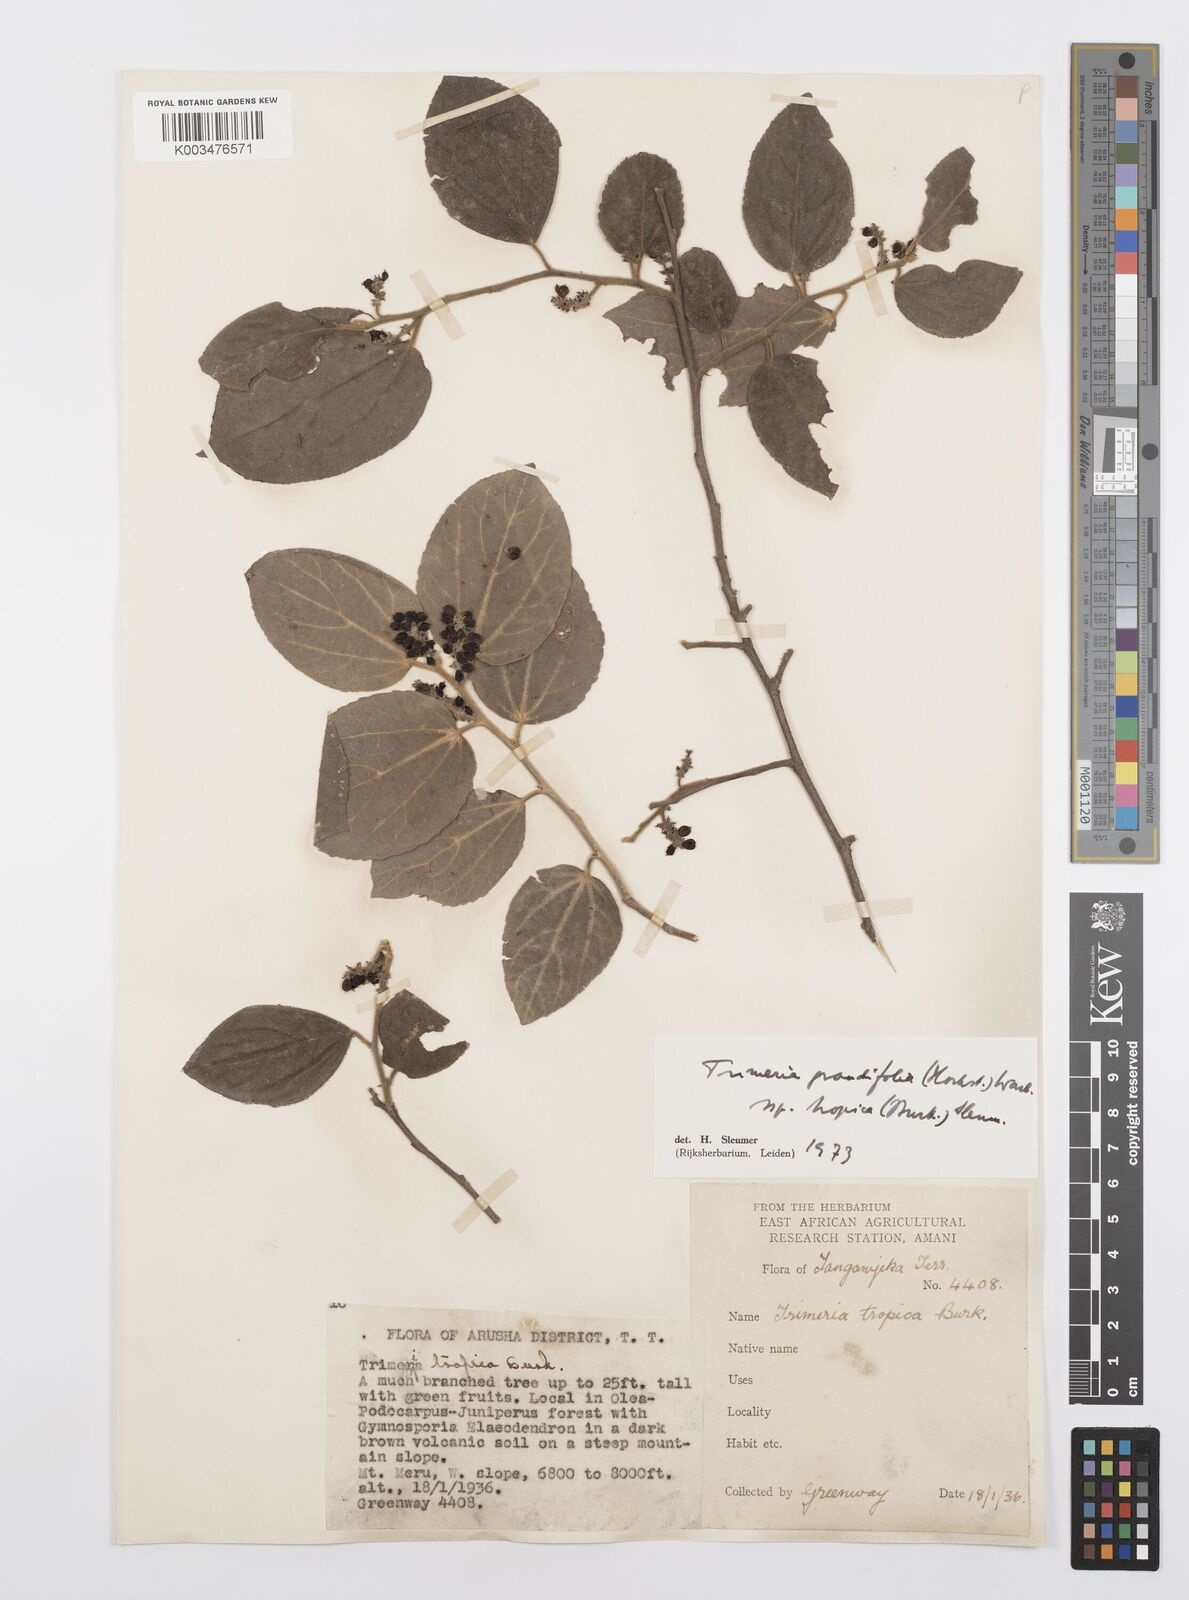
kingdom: Plantae
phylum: Tracheophyta
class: Magnoliopsida
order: Malpighiales
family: Salicaceae
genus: Trimeria
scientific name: Trimeria grandifolia
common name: Wild mulberry
